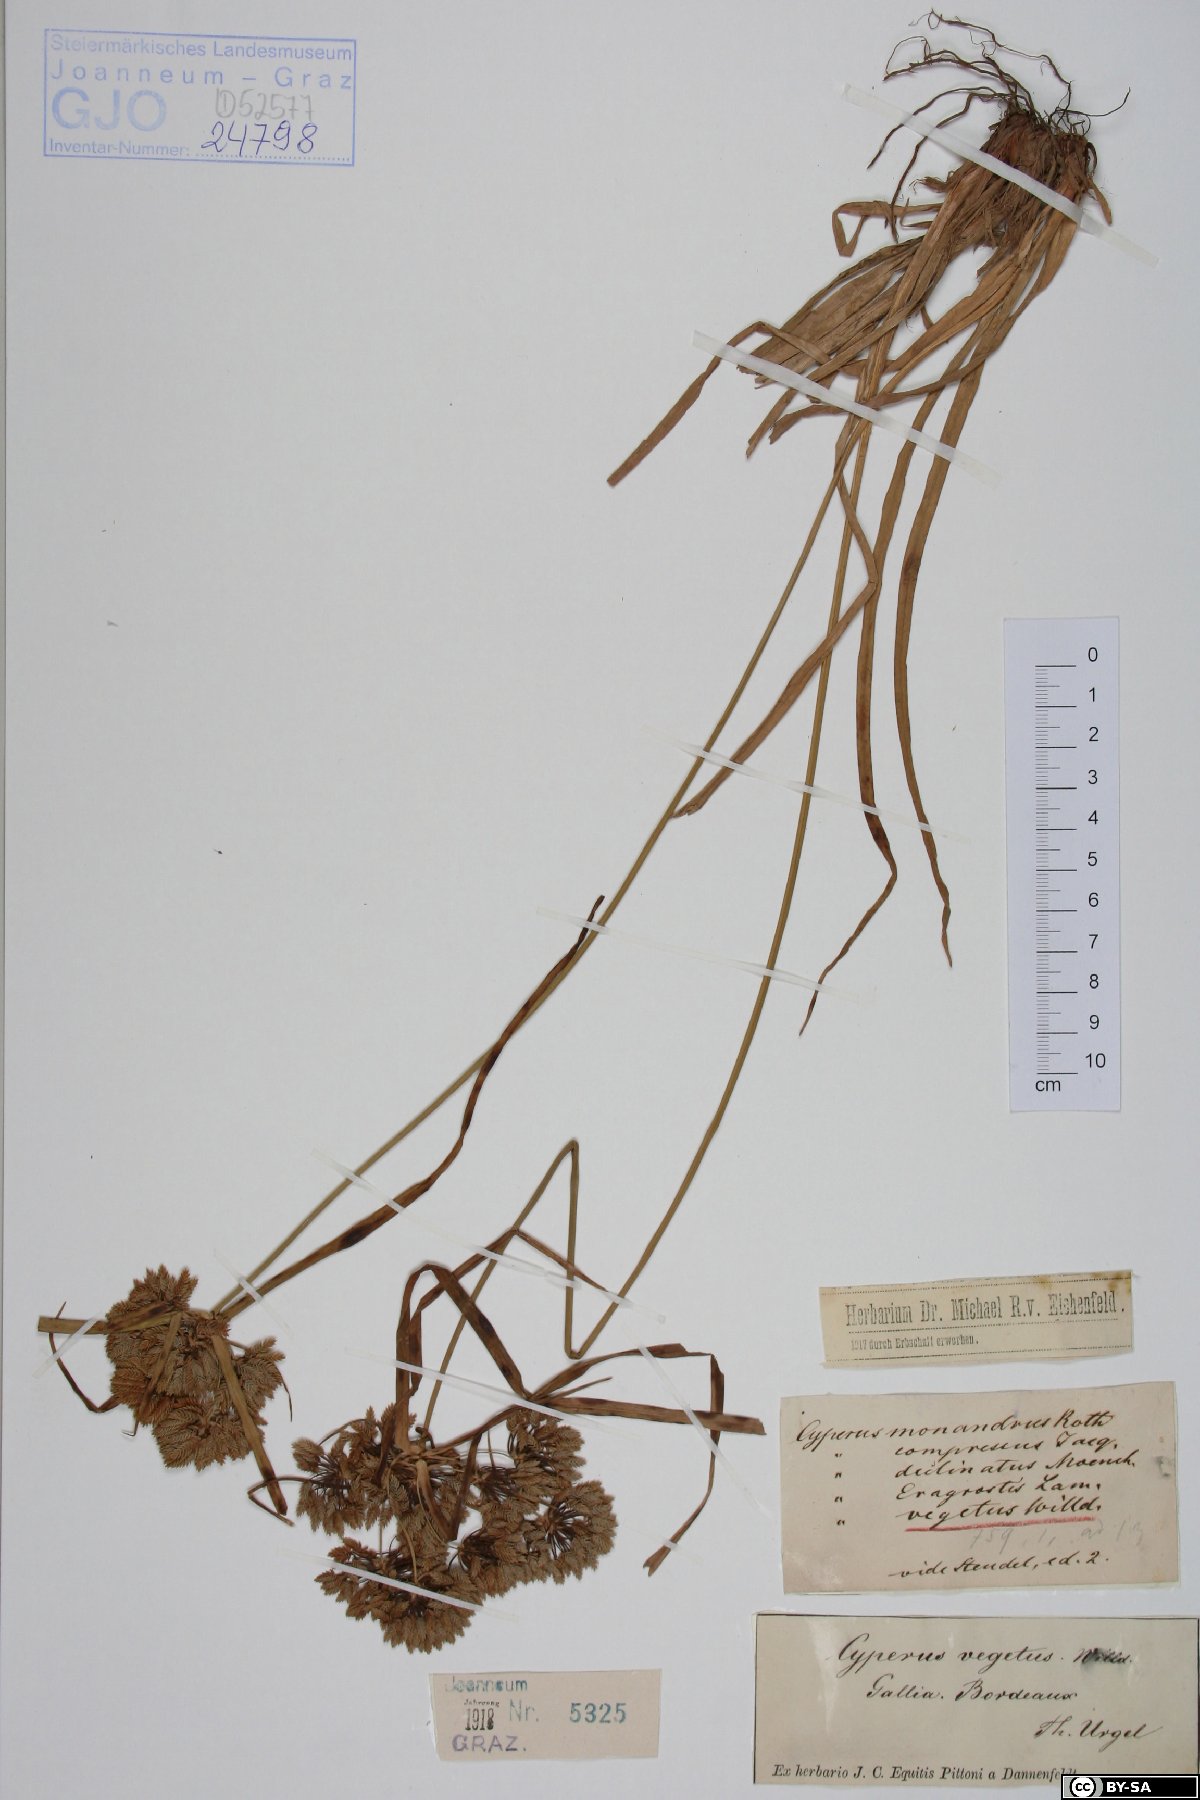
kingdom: Plantae
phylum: Tracheophyta
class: Liliopsida
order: Poales
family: Cyperaceae
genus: Cyperus
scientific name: Cyperus eragrostis
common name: Tall flatsedge
